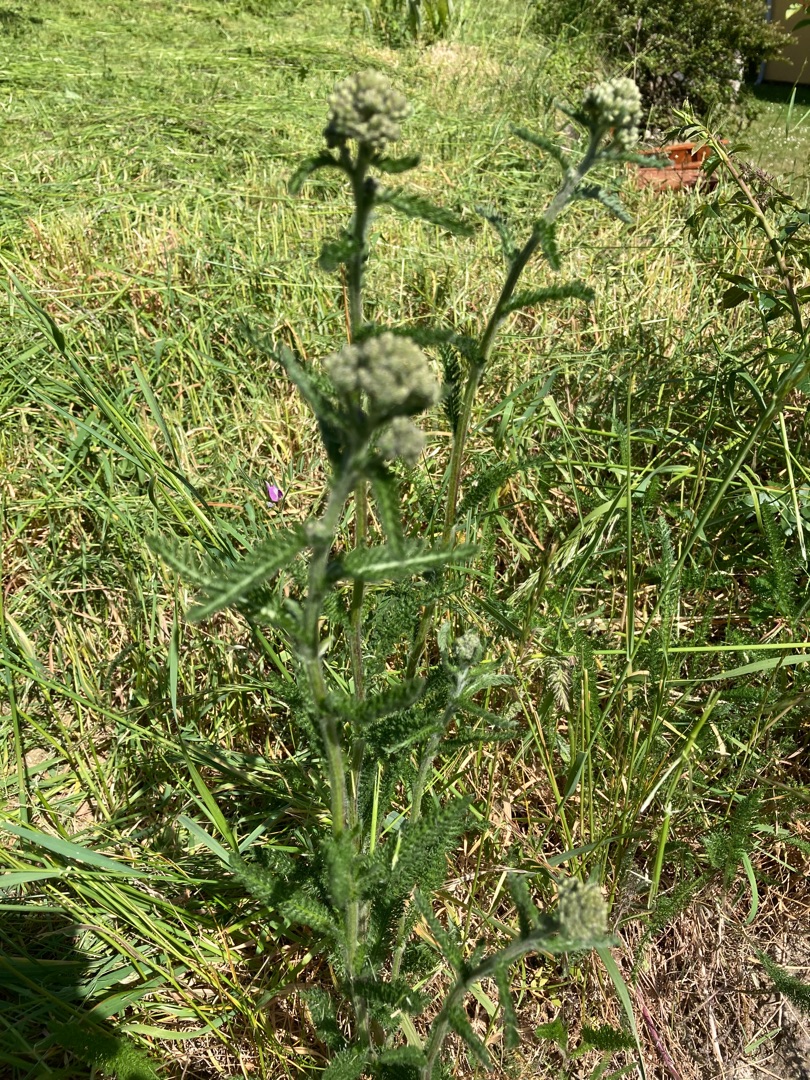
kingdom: Plantae
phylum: Tracheophyta
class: Magnoliopsida
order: Asterales
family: Asteraceae
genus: Achillea
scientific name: Achillea millefolium
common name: Almindelig røllike
